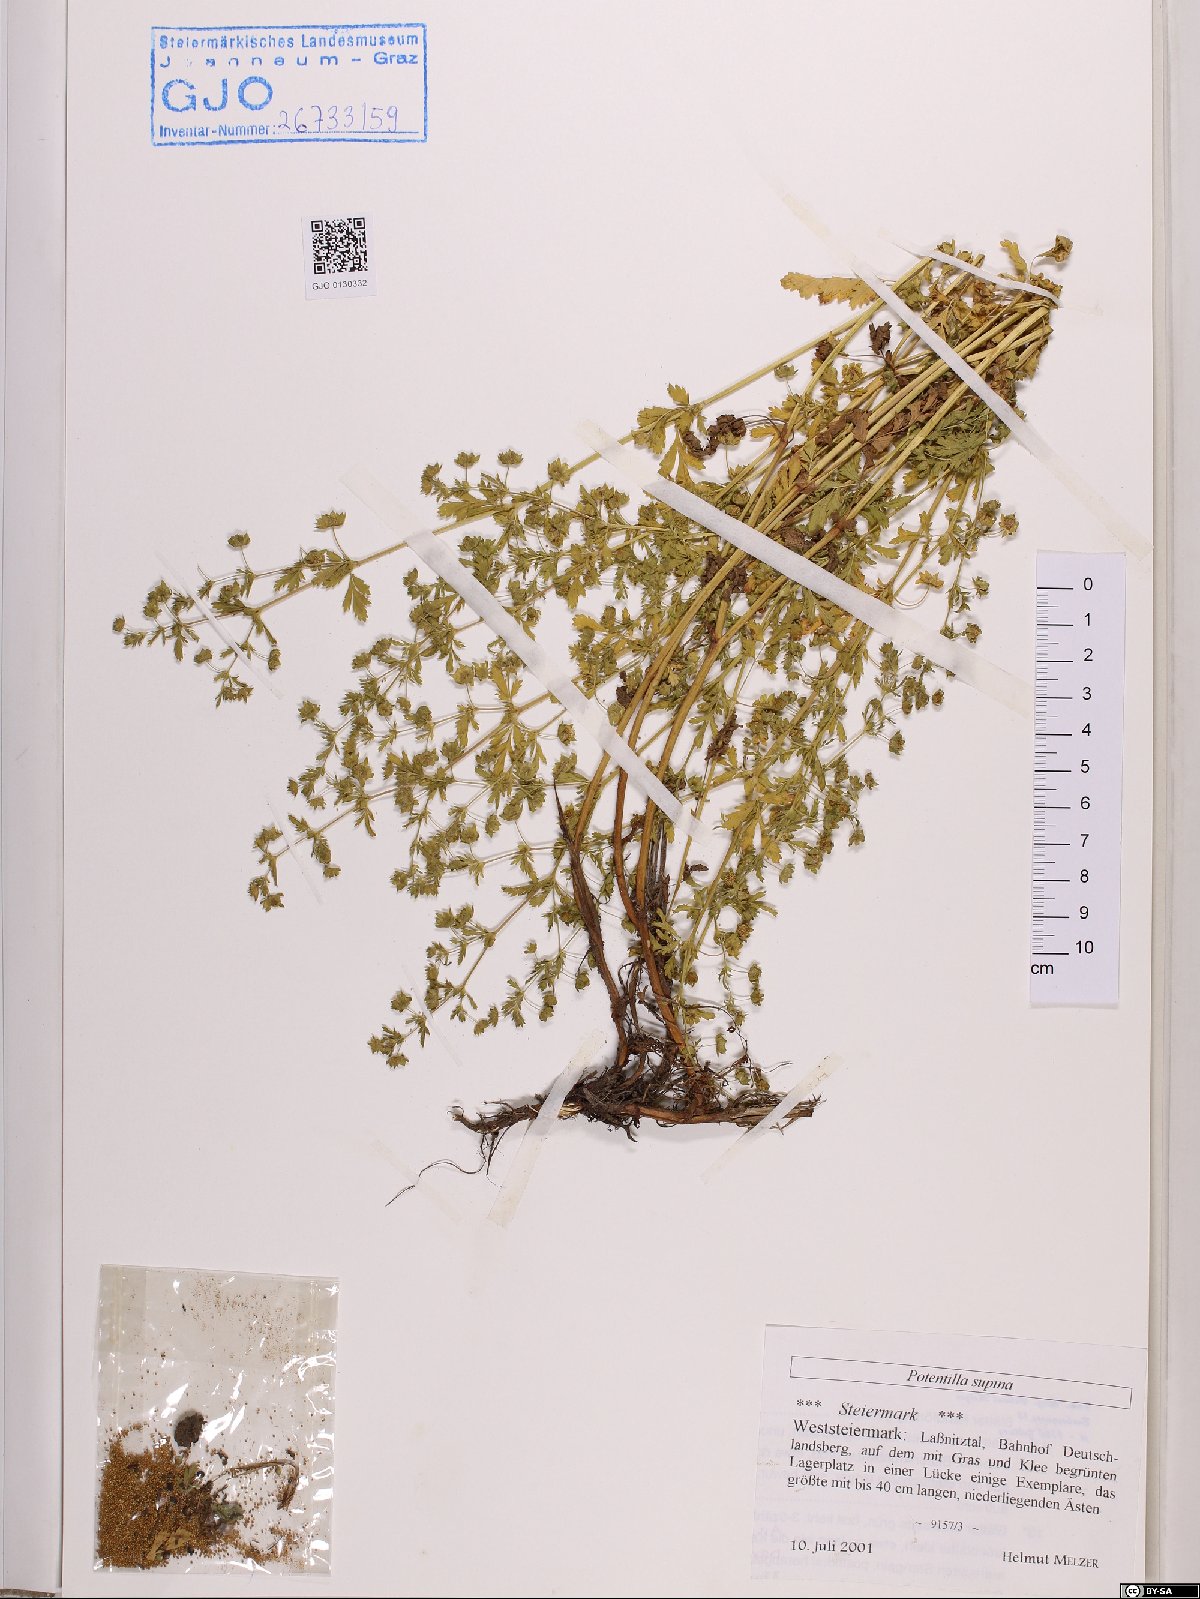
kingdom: Plantae
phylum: Tracheophyta
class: Magnoliopsida
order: Rosales
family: Rosaceae
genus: Potentilla
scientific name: Potentilla supina
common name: Prostrate cinquefoil
